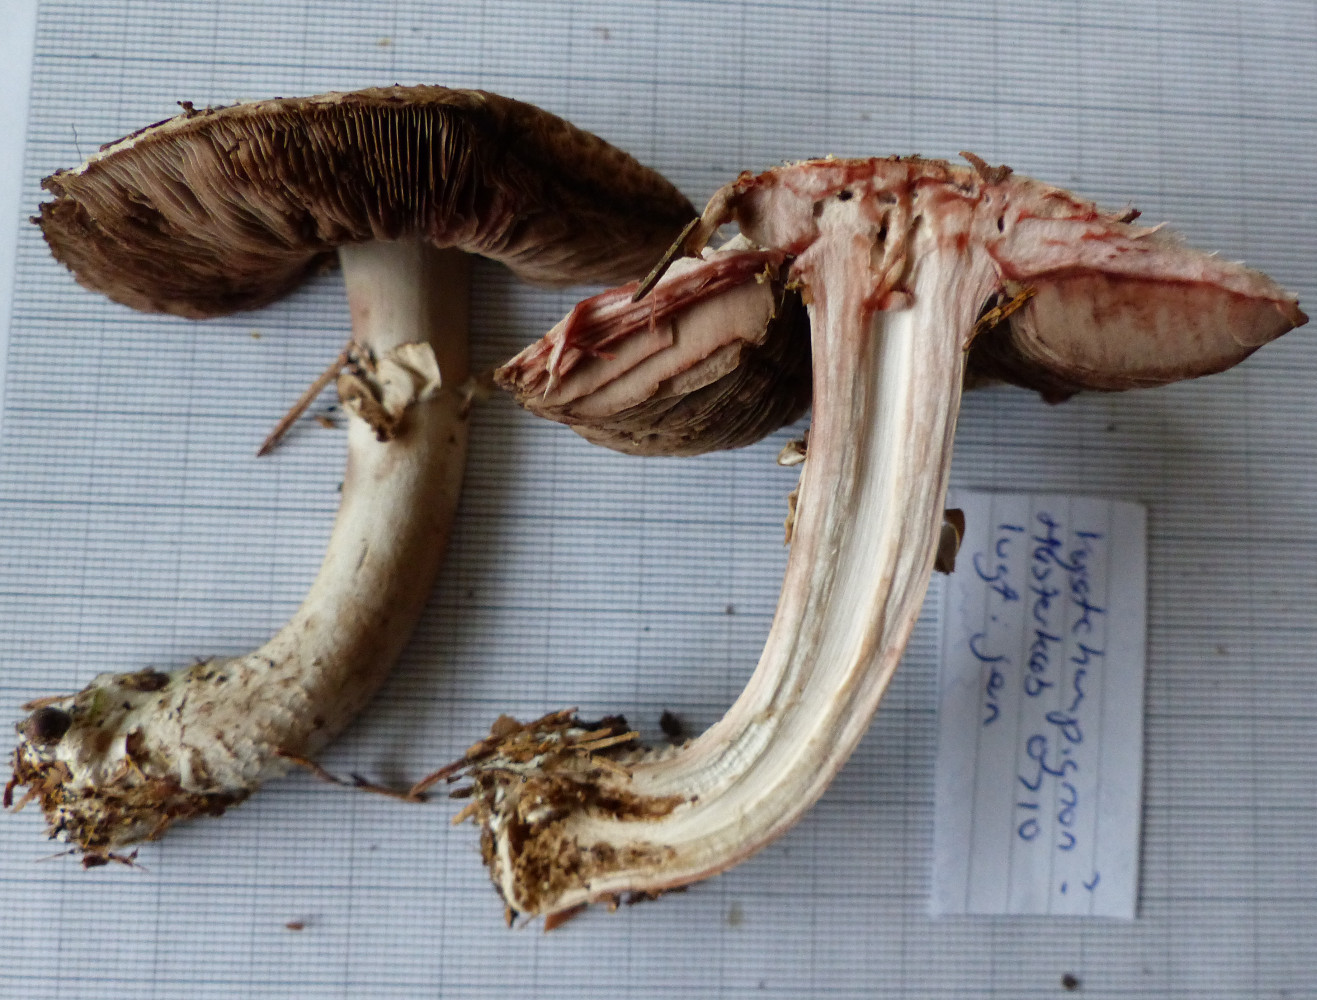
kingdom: Fungi
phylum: Basidiomycota
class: Agaricomycetes
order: Agaricales
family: Agaricaceae
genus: Agaricus
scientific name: Agaricus
